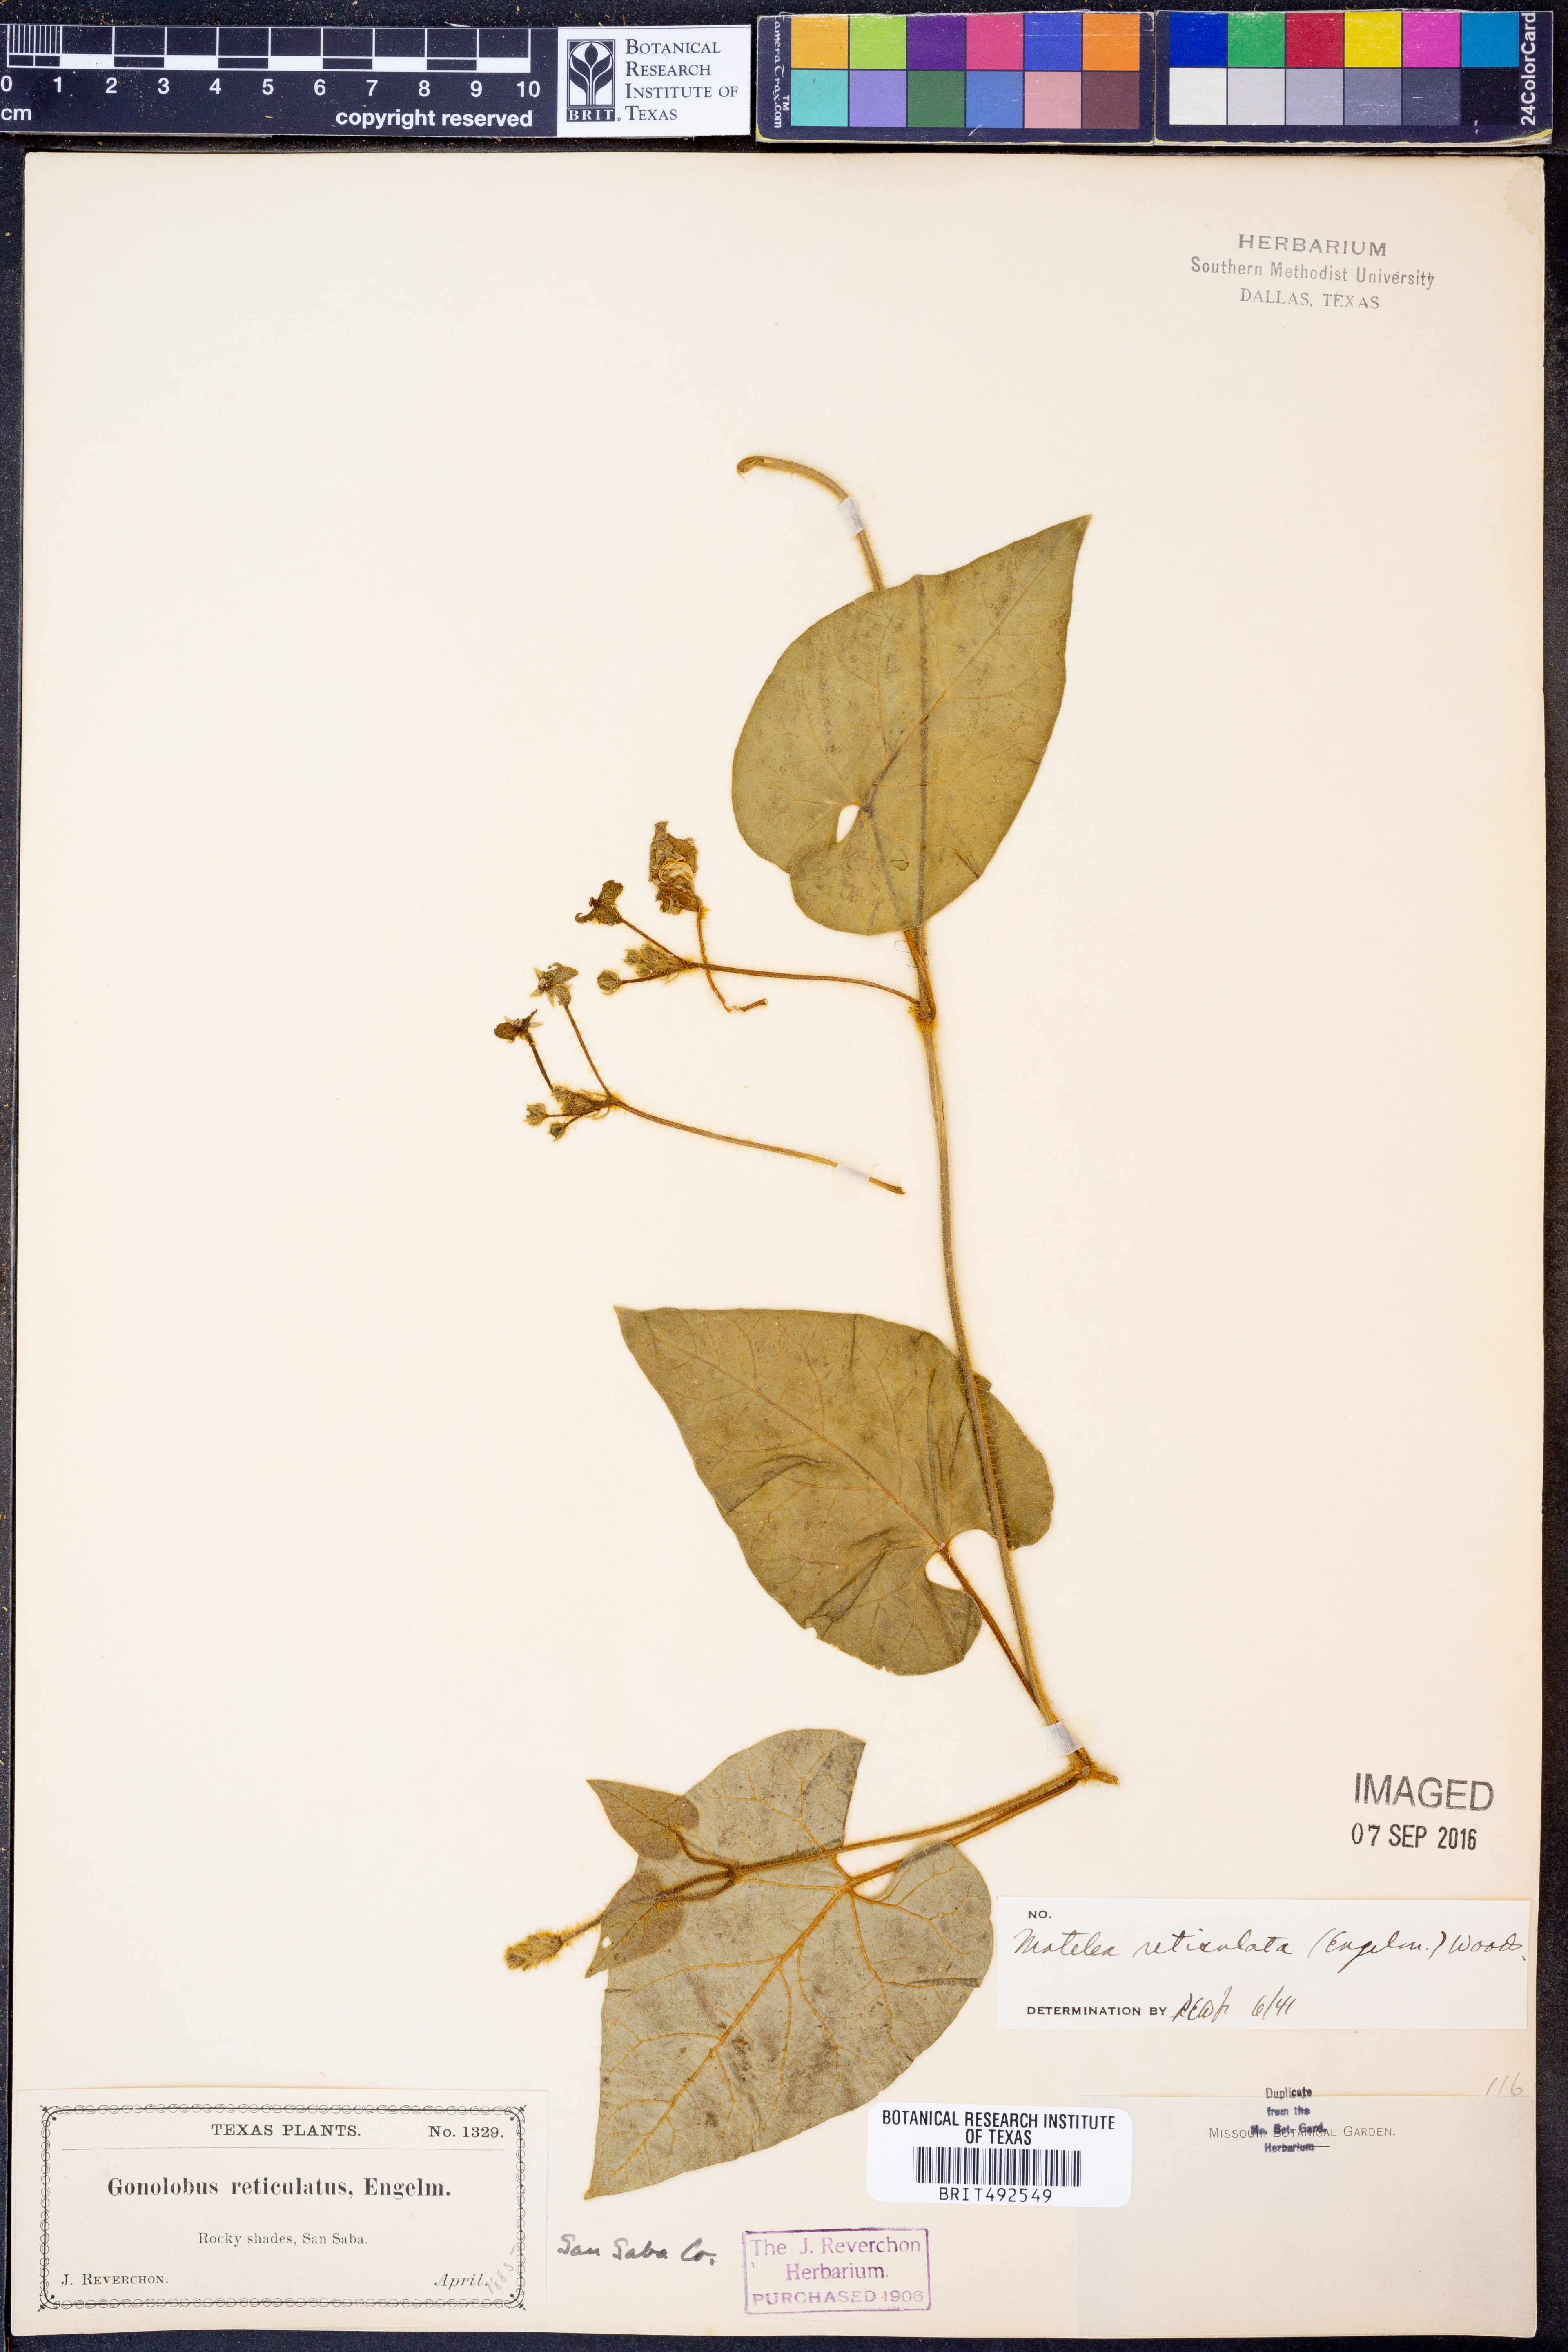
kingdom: Plantae
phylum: Tracheophyta
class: Magnoliopsida
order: Gentianales
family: Apocynaceae
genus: Dictyanthus
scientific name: Dictyanthus reticulatus
